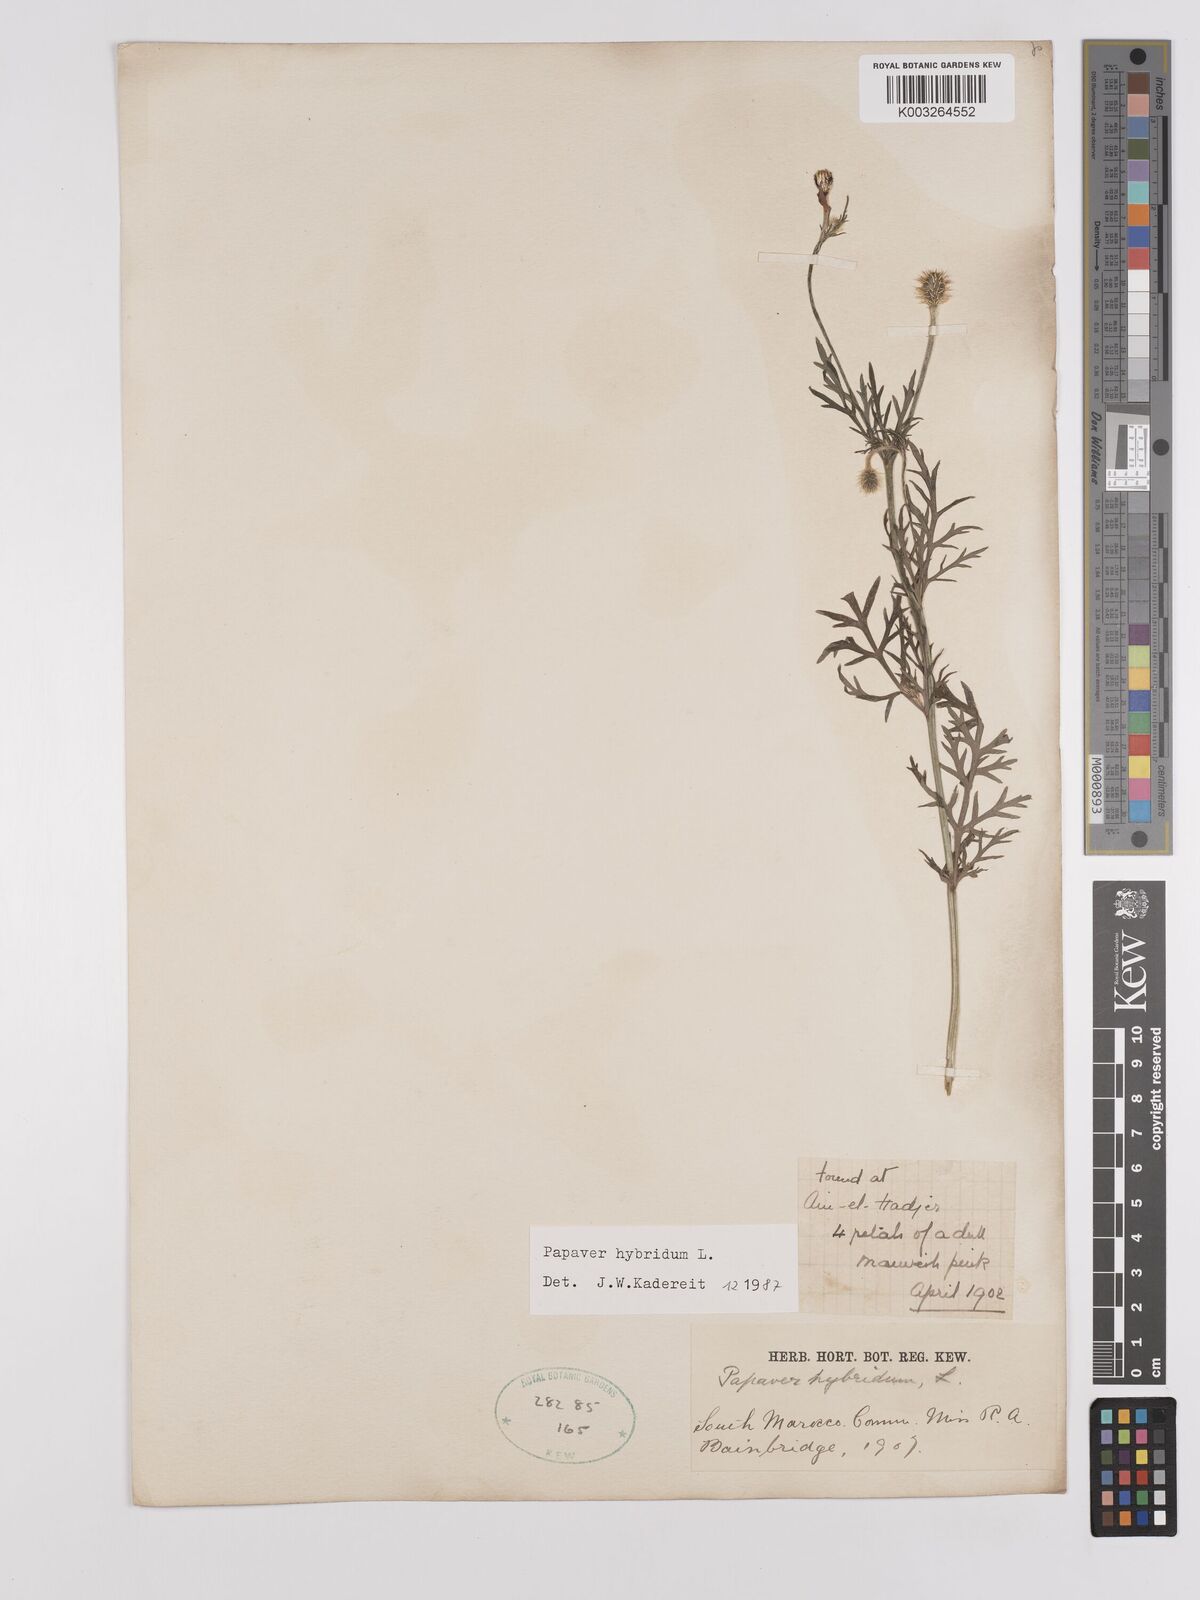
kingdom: Plantae
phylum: Tracheophyta
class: Magnoliopsida
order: Ranunculales
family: Papaveraceae
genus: Papaver
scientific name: Papaver
